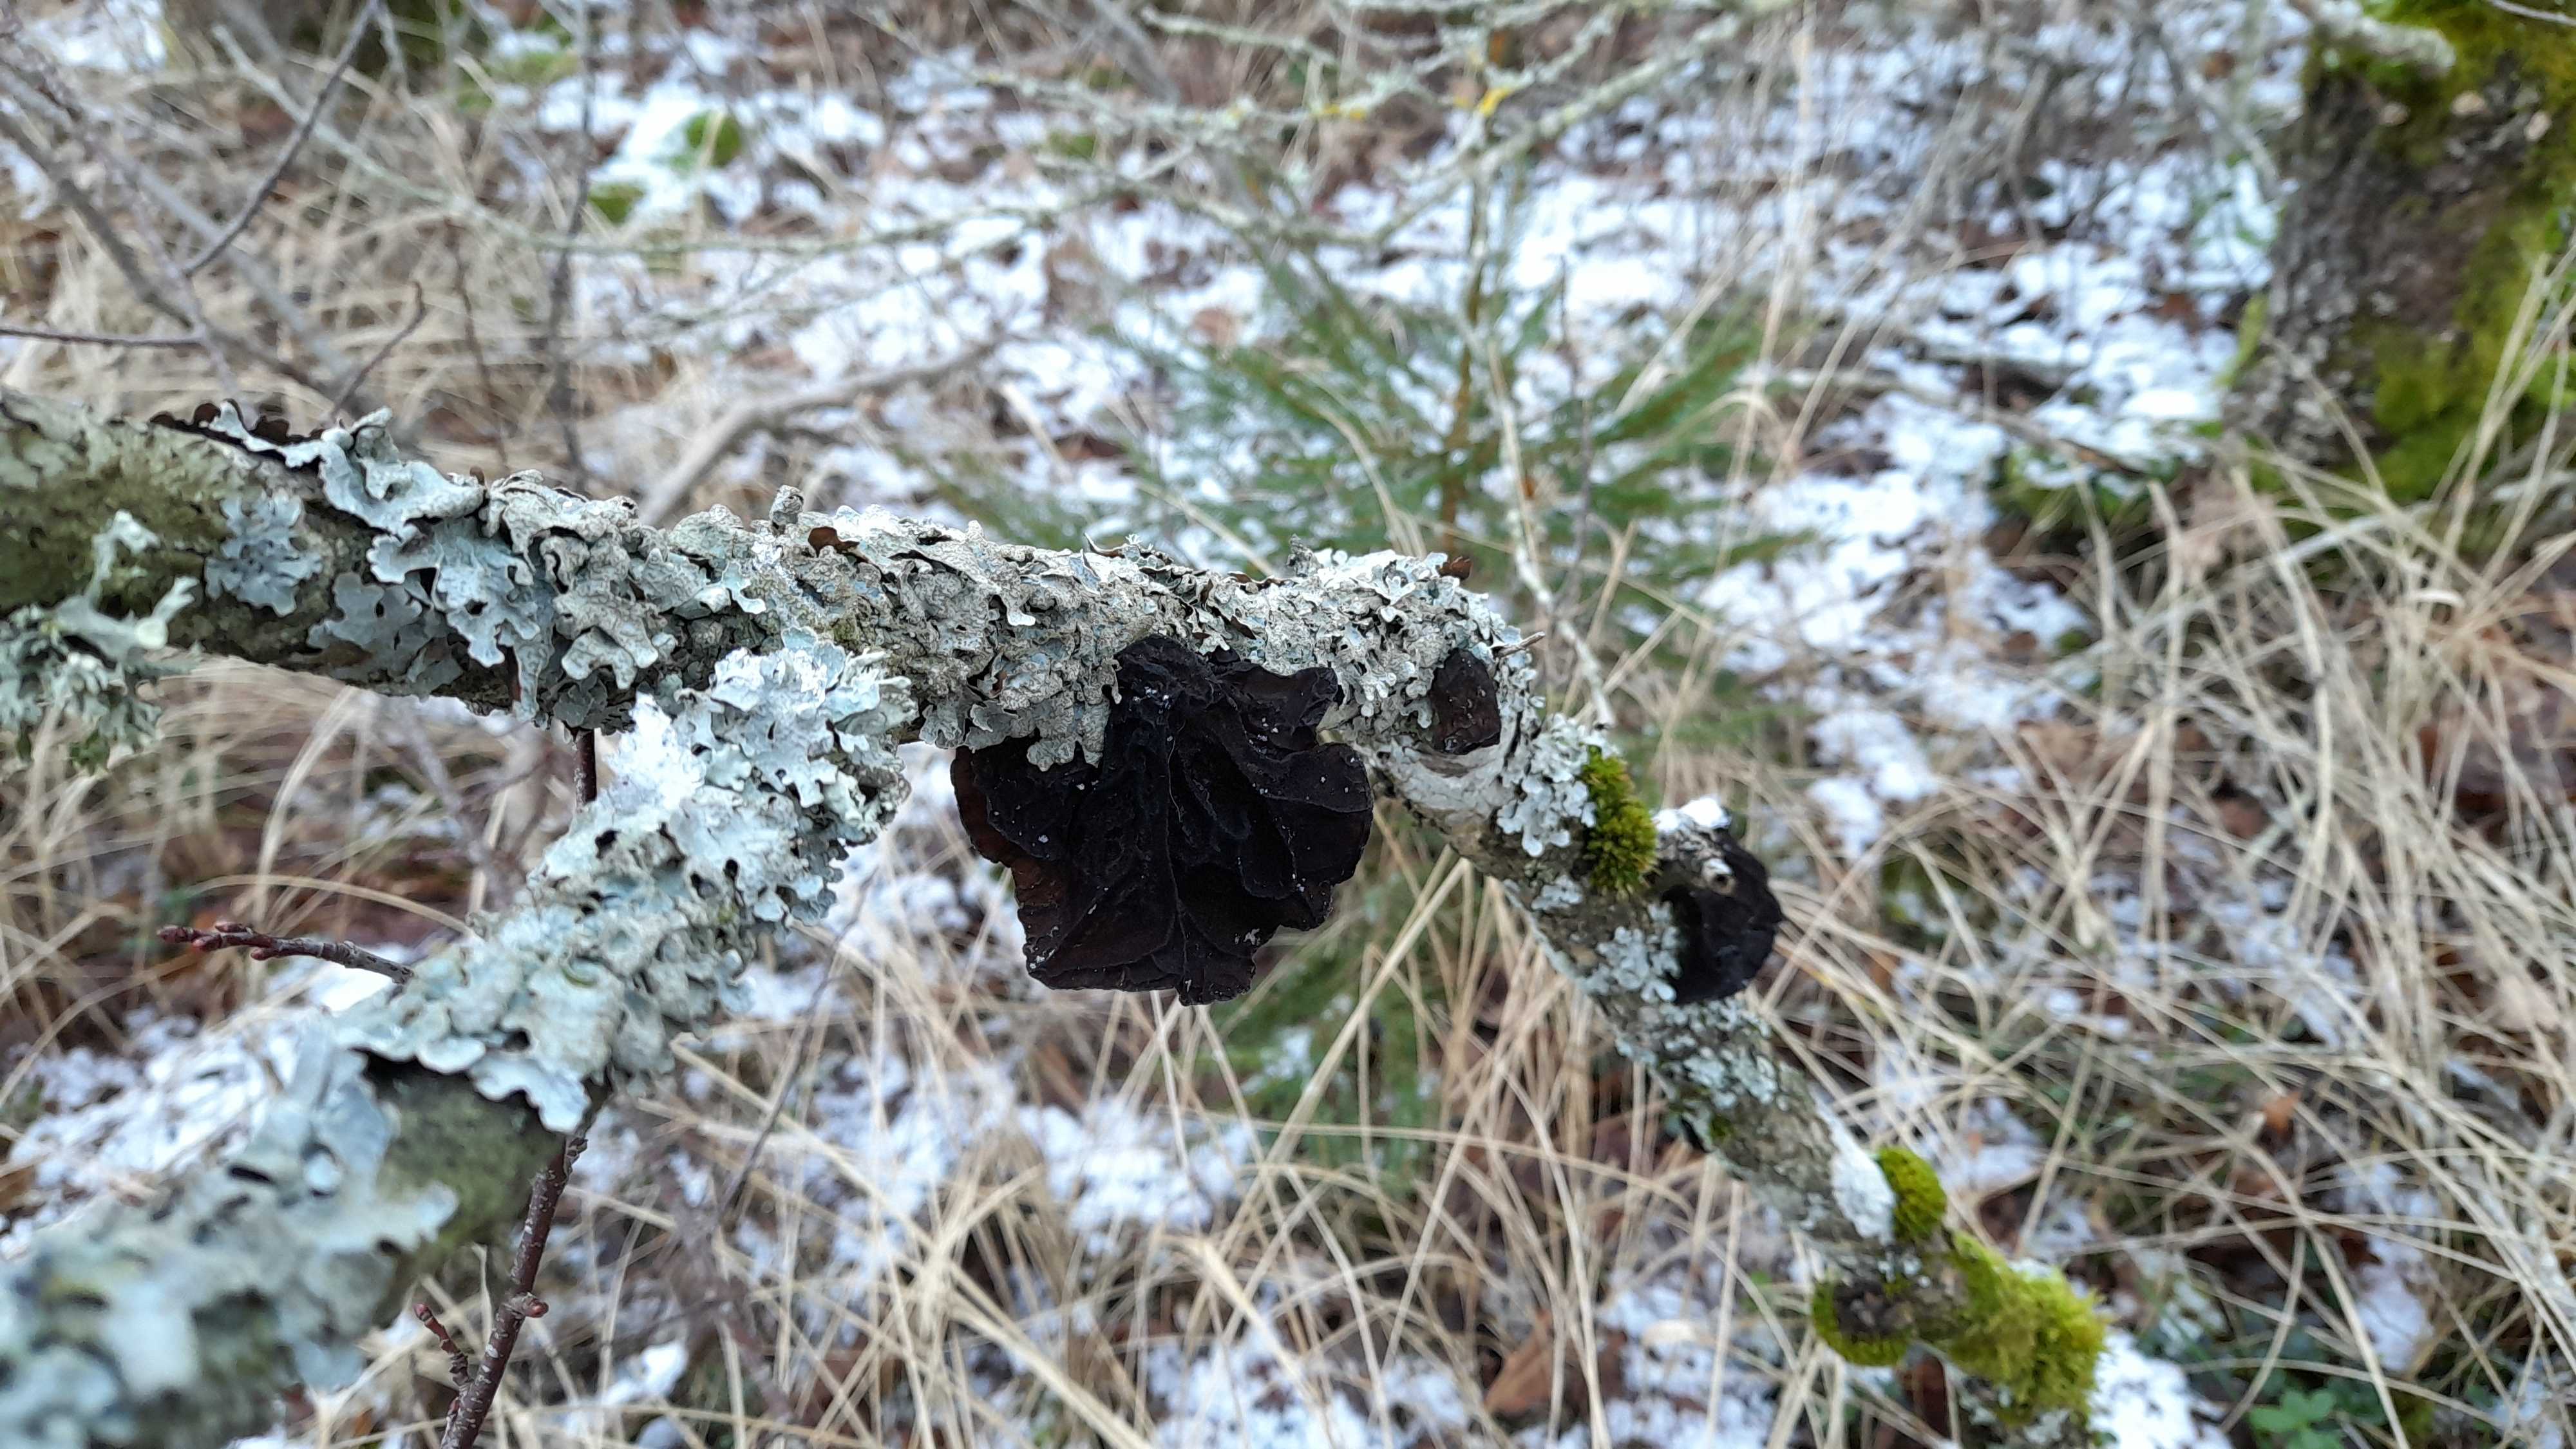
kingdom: Fungi
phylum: Basidiomycota
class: Agaricomycetes
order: Auriculariales
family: Auriculariaceae
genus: Exidia
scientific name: Exidia glandulosa
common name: ege-bævretop
